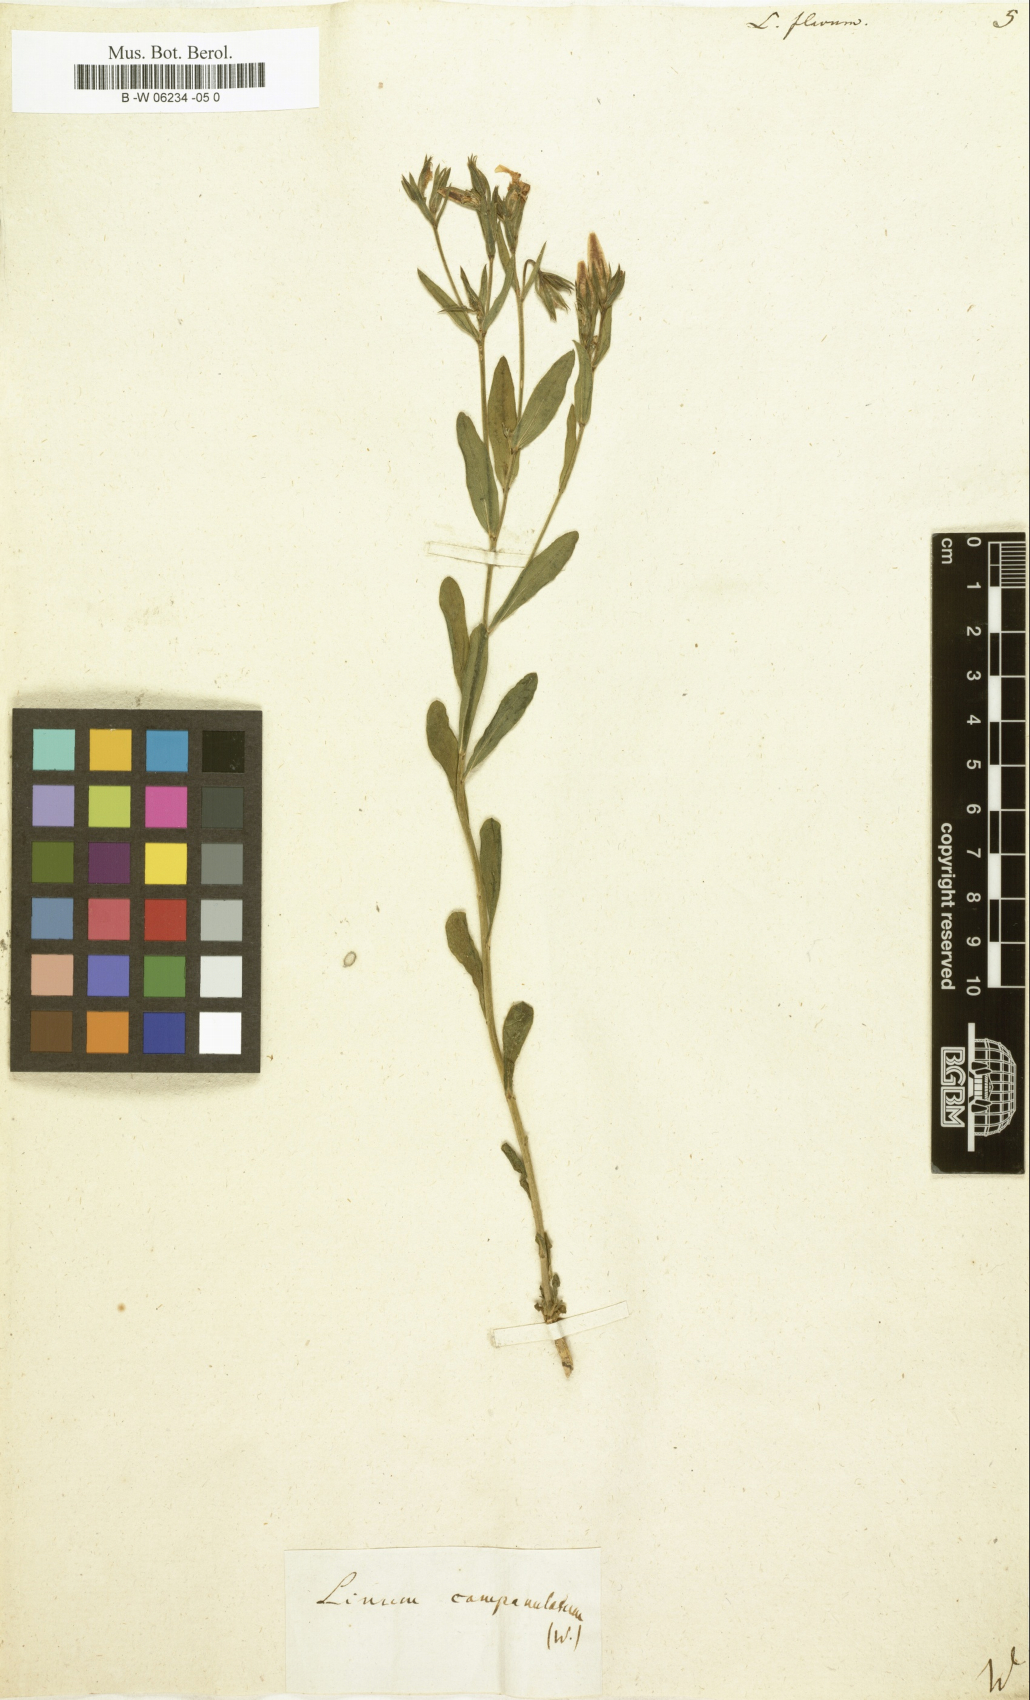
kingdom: Plantae
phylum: Tracheophyta
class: Magnoliopsida
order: Malpighiales
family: Linaceae
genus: Linum
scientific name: Linum flavum
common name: Yellow flax
